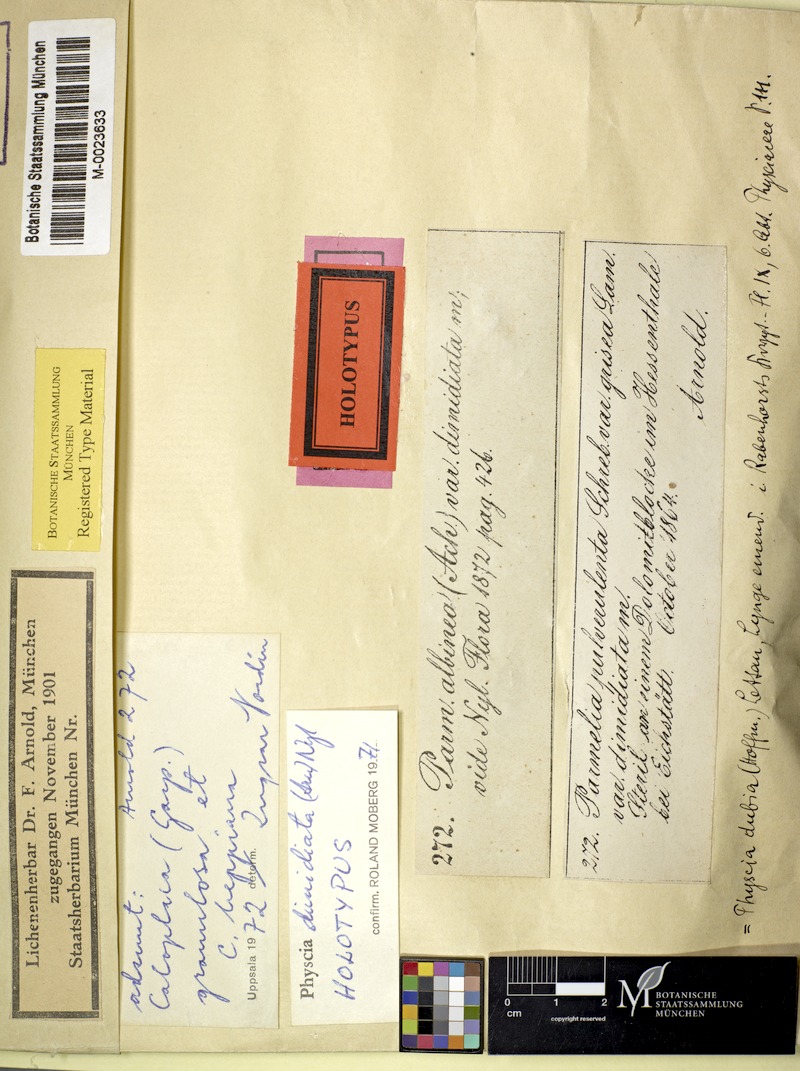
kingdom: Fungi
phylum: Ascomycota
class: Lecanoromycetes
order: Caliciales
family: Physciaceae
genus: Physcia
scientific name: Physcia dimidiata
